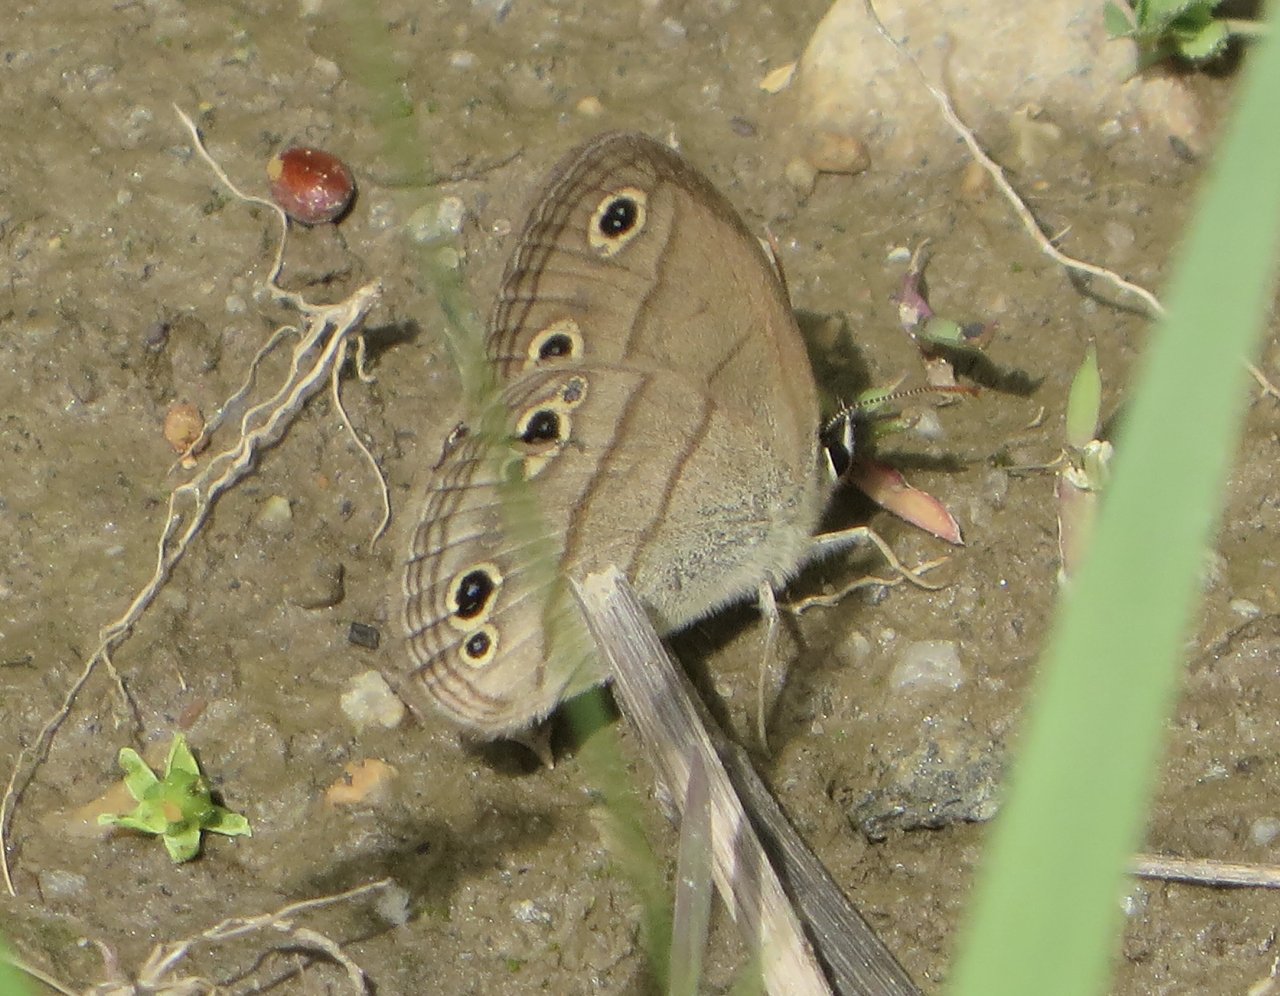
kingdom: Animalia
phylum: Arthropoda
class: Insecta
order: Lepidoptera
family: Nymphalidae
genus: Euptychia
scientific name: Euptychia cymela
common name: Little Wood Satyr
